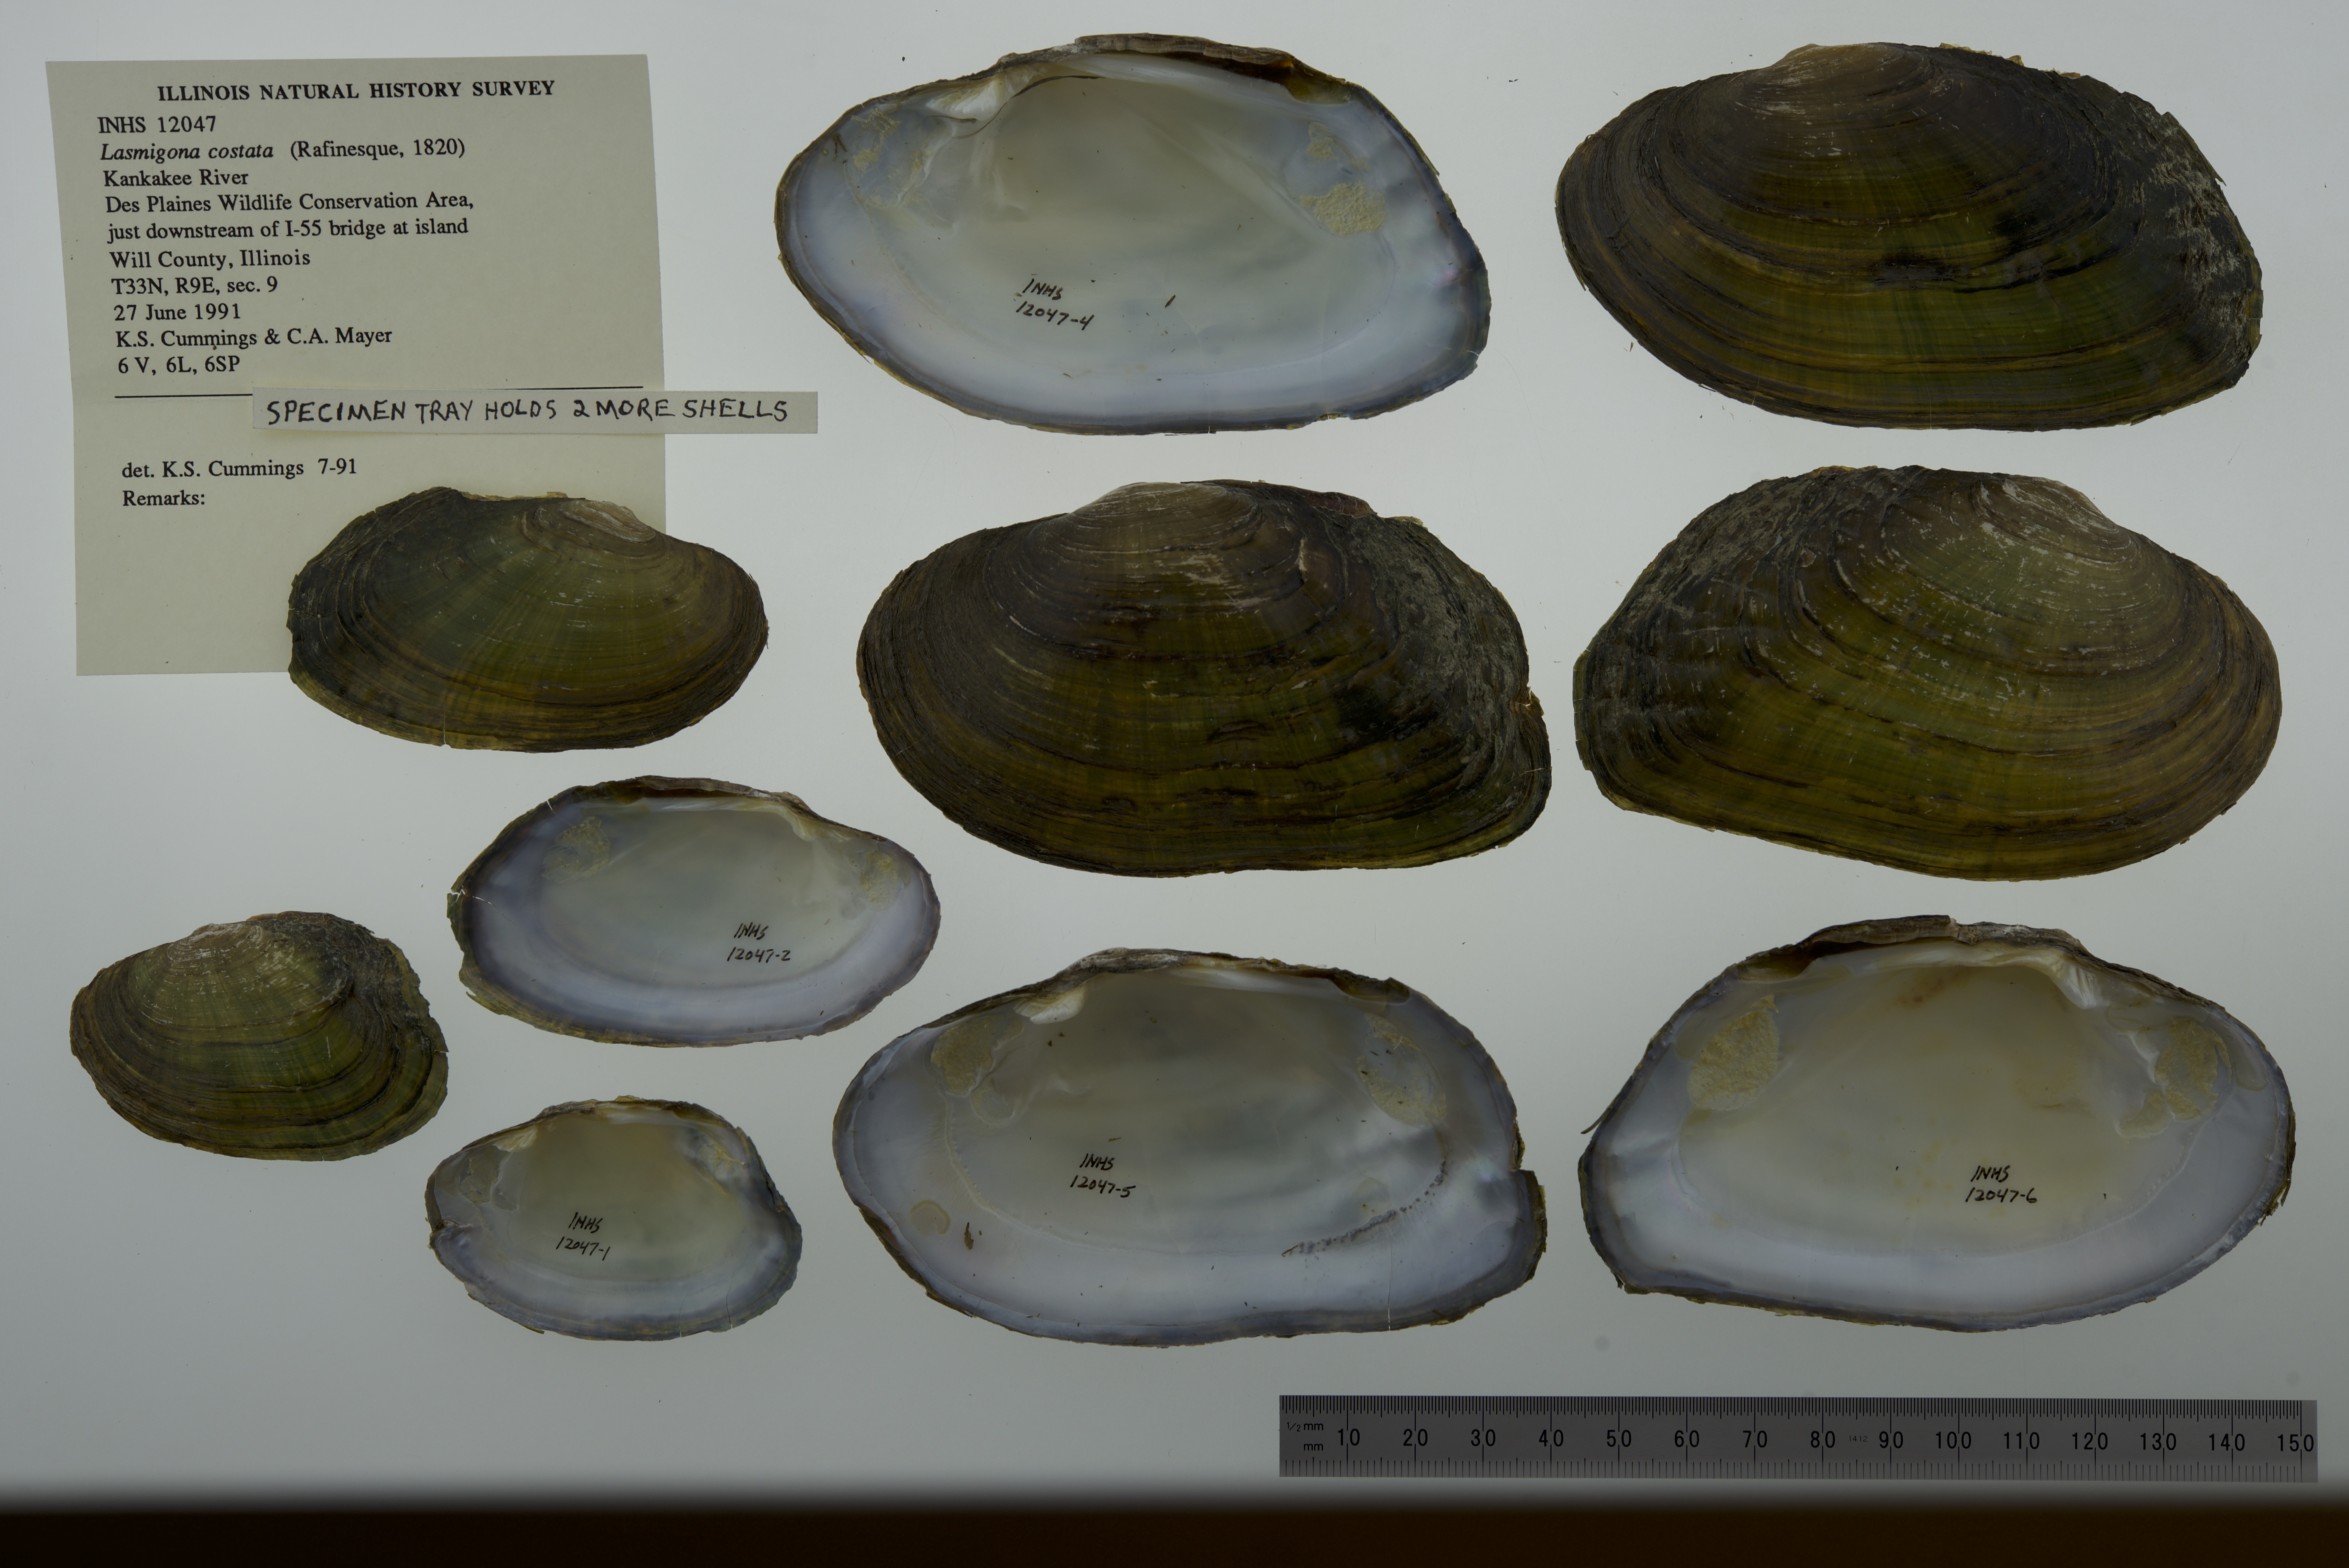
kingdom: Animalia
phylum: Mollusca
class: Bivalvia
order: Unionida
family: Unionidae
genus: Lasmigona
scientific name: Lasmigona costata
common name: Flutedshell
